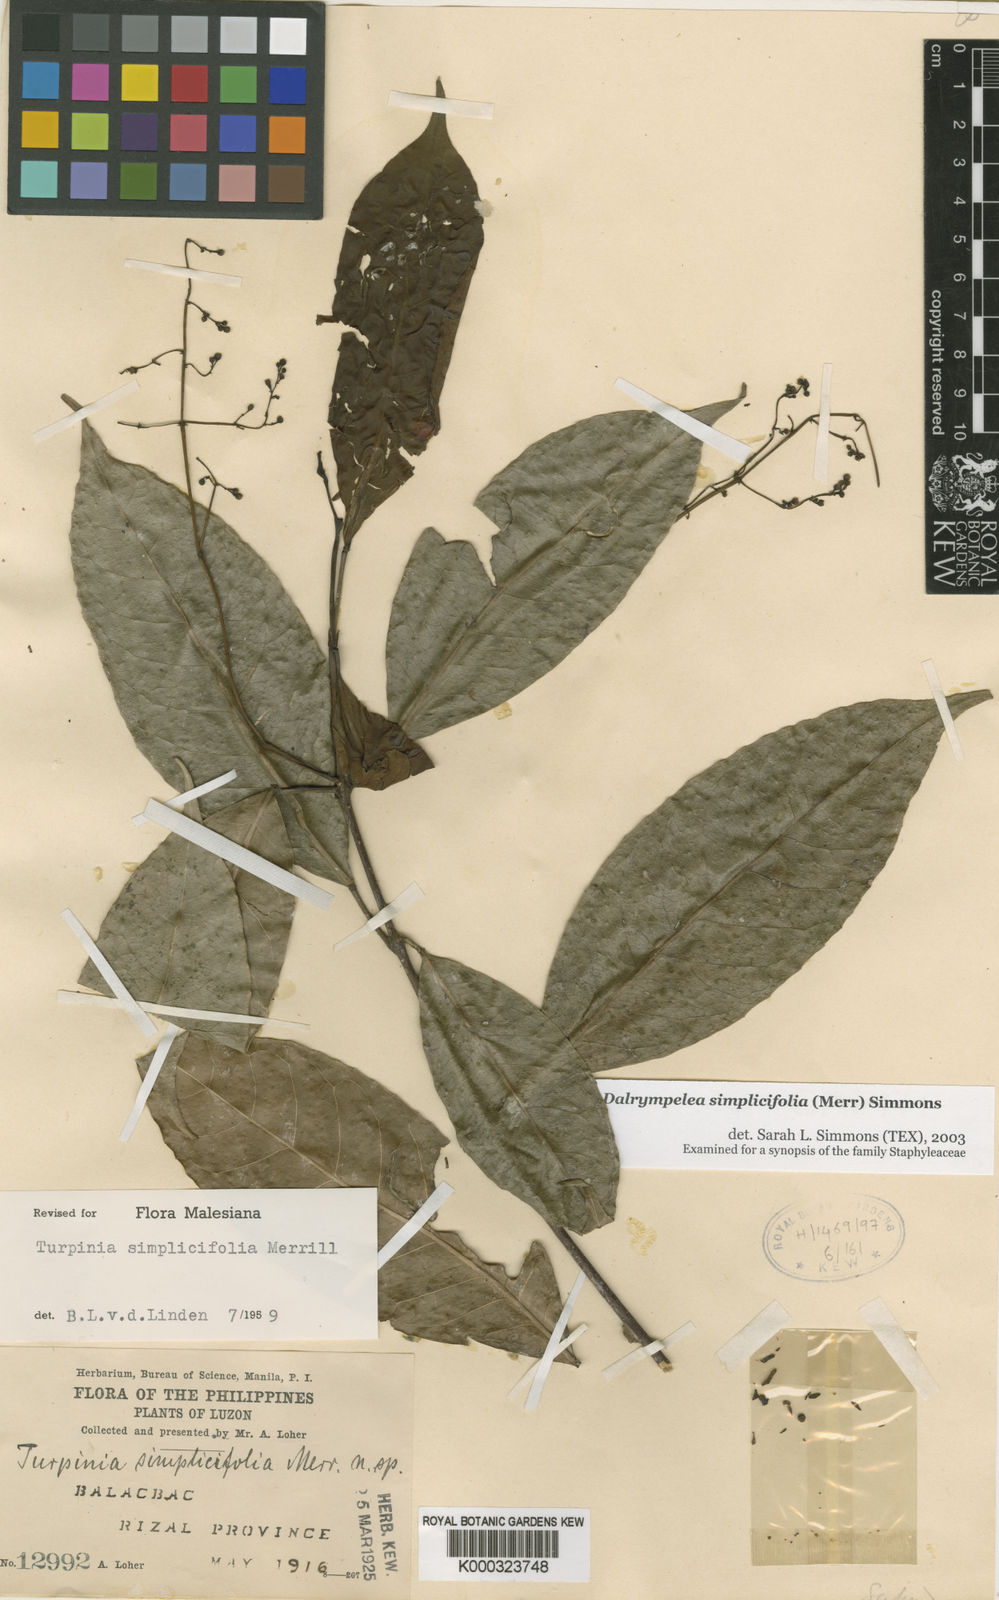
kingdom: Plantae
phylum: Tracheophyta
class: Magnoliopsida
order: Crossosomatales
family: Staphyleaceae
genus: Turpinia
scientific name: Turpinia simplicifolia
